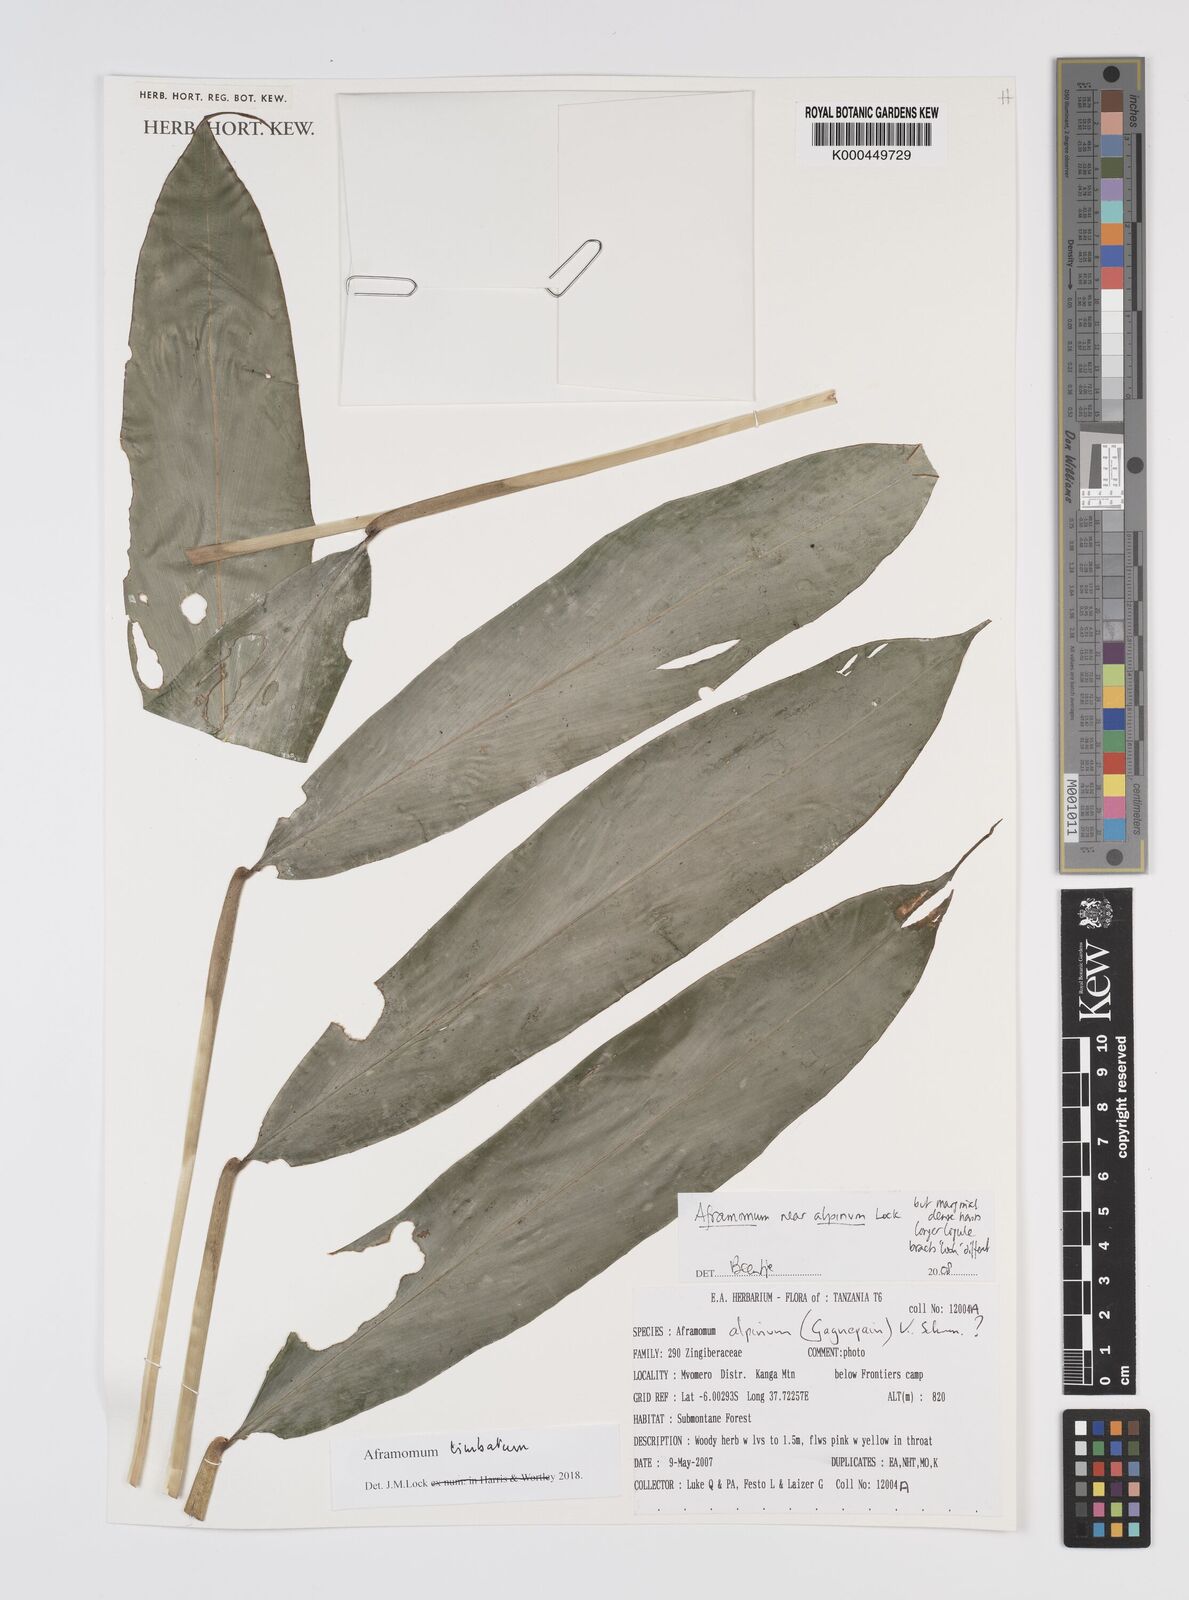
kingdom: Plantae
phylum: Tracheophyta
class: Liliopsida
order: Zingiberales
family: Zingiberaceae
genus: Aframomum
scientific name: Aframomum alpinum
